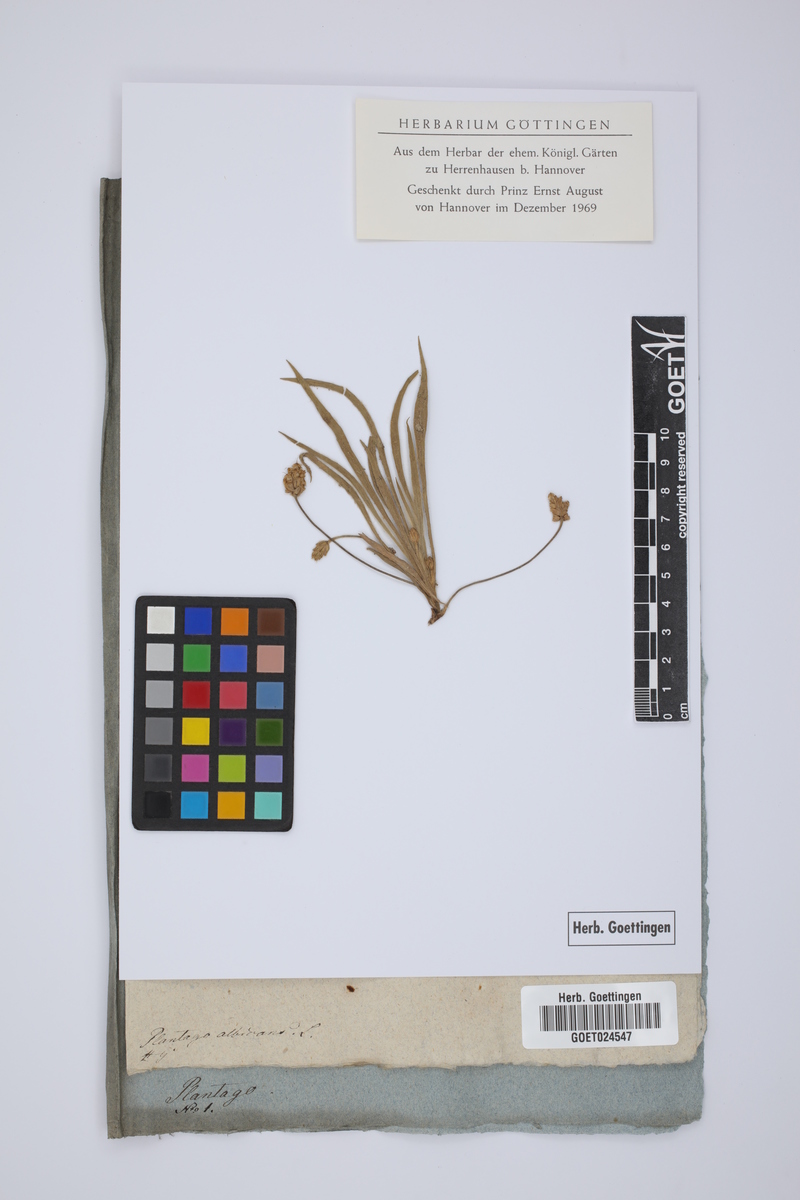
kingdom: Plantae
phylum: Tracheophyta
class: Magnoliopsida
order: Lamiales
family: Plantaginaceae
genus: Plantago
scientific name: Plantago albicans
